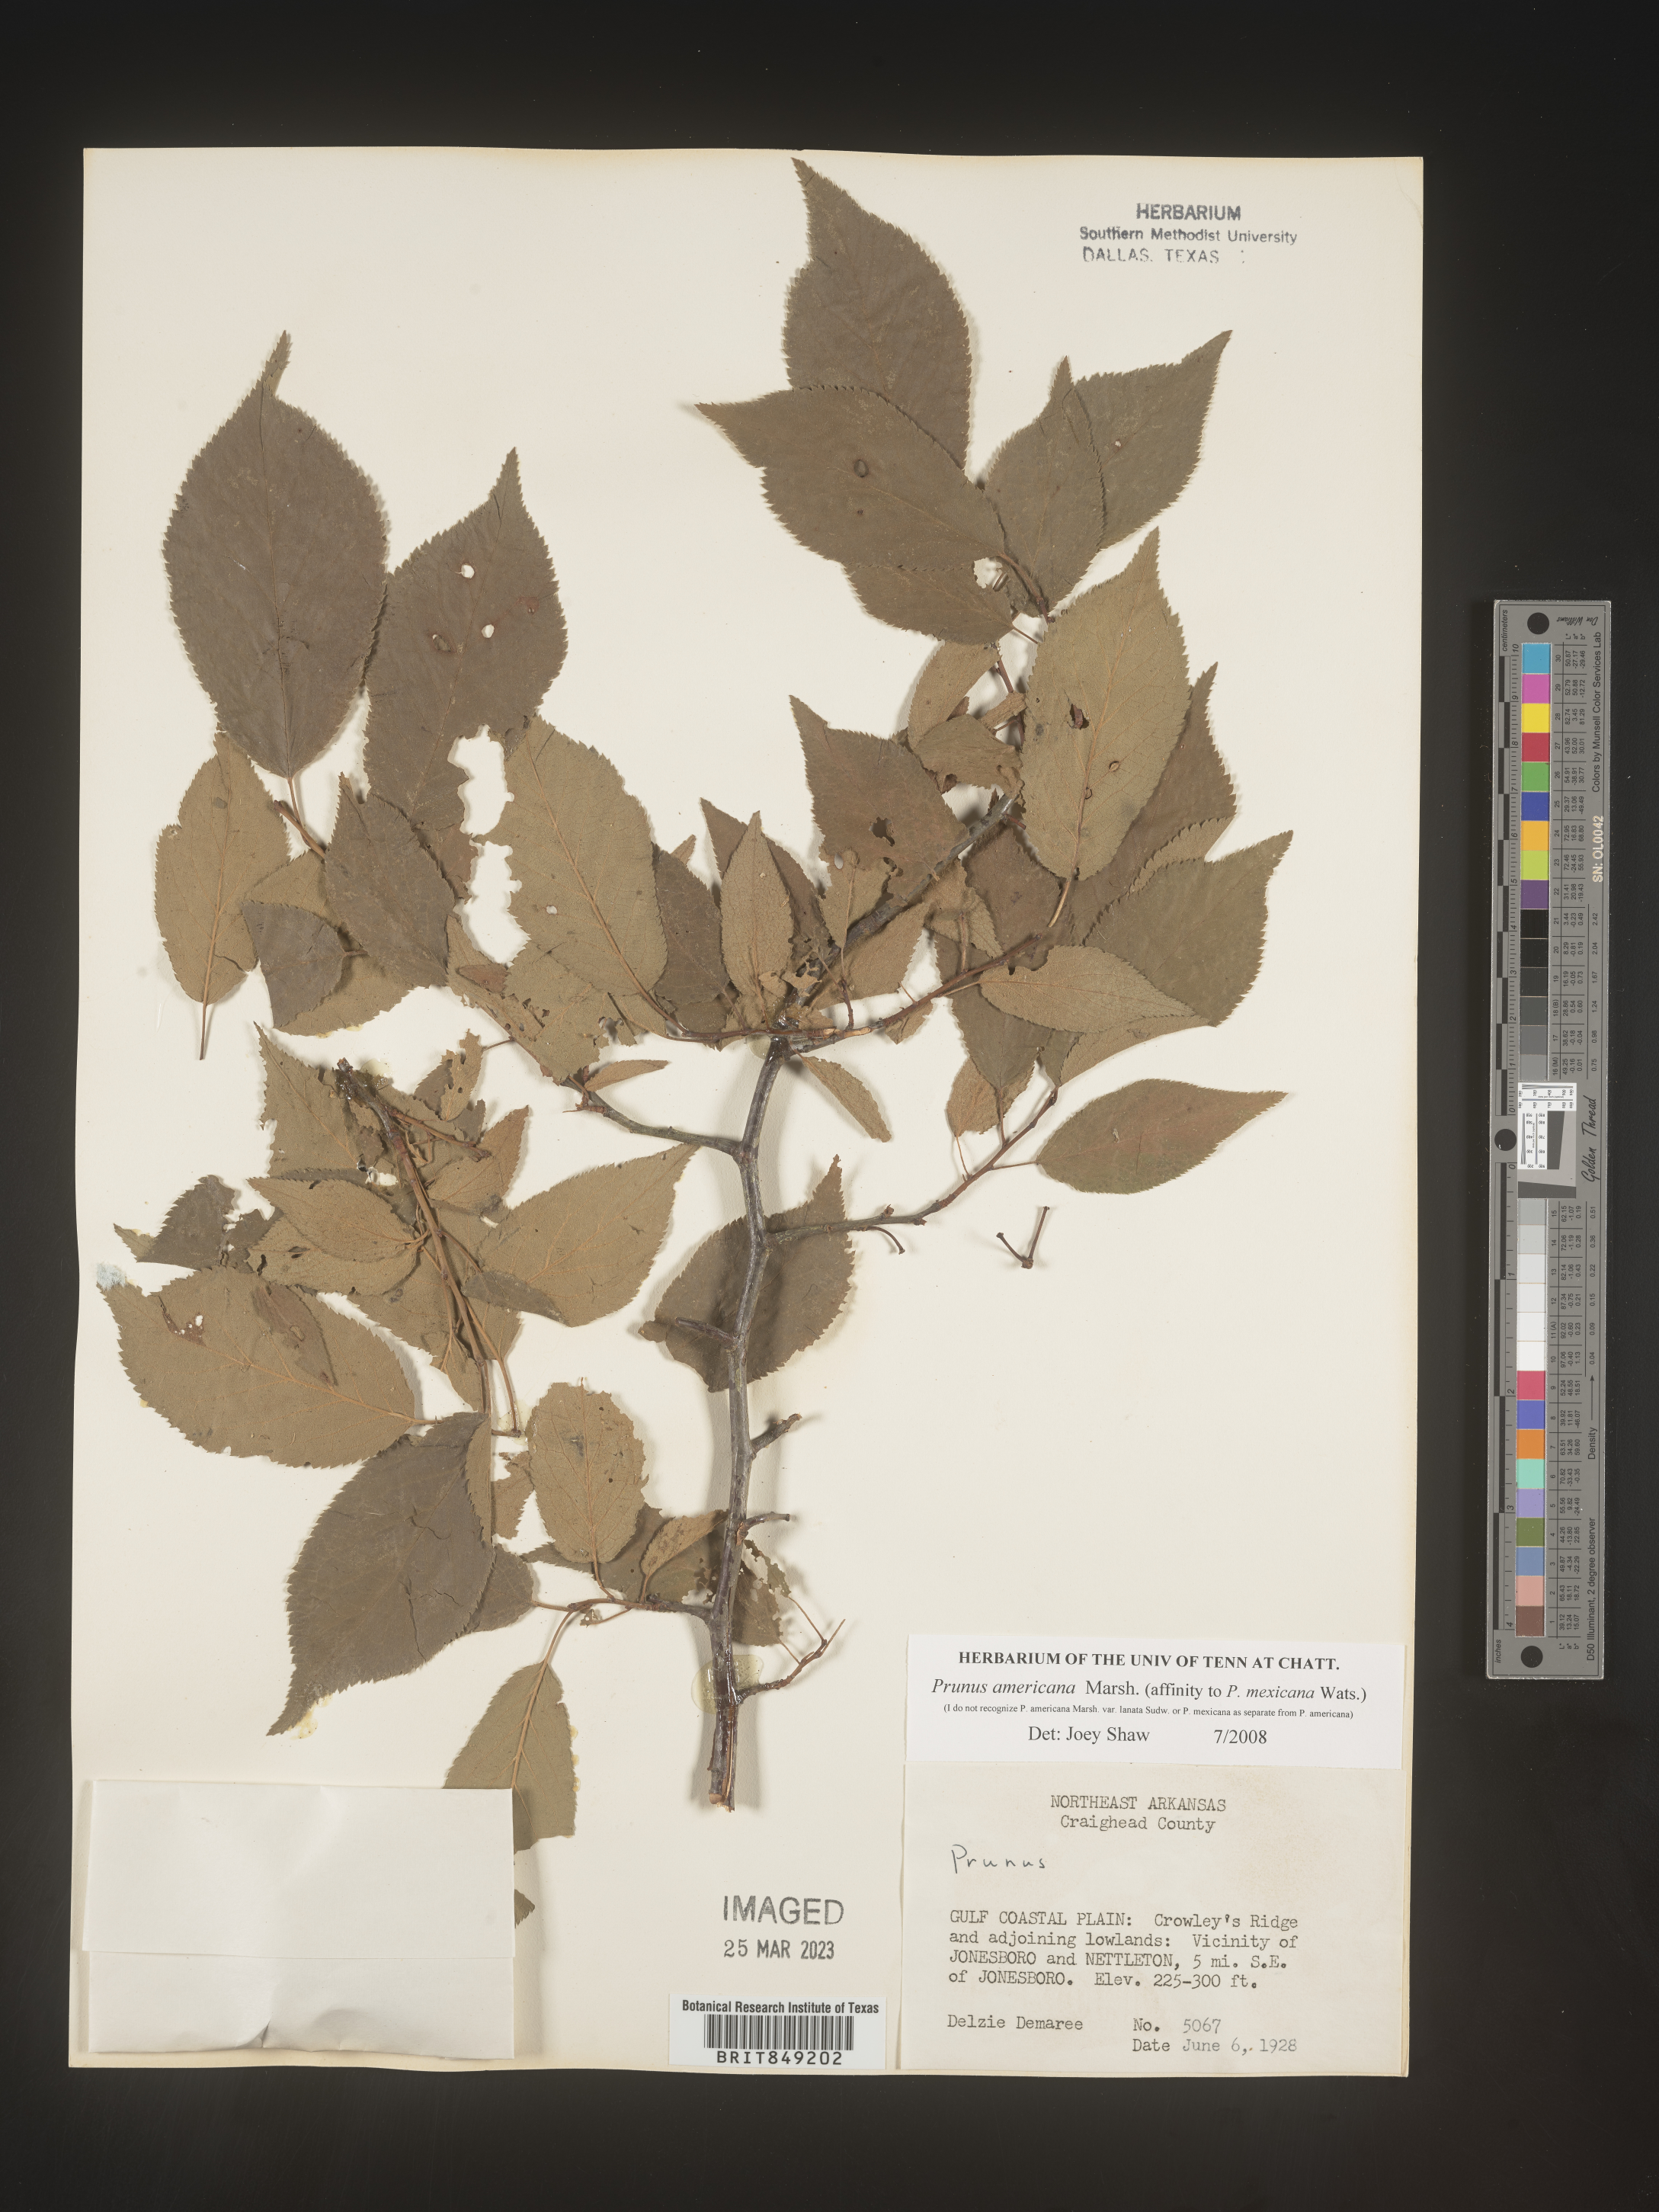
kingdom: Plantae
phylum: Tracheophyta
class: Magnoliopsida
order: Rosales
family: Rosaceae
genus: Prunus
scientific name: Prunus americana
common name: American plum
